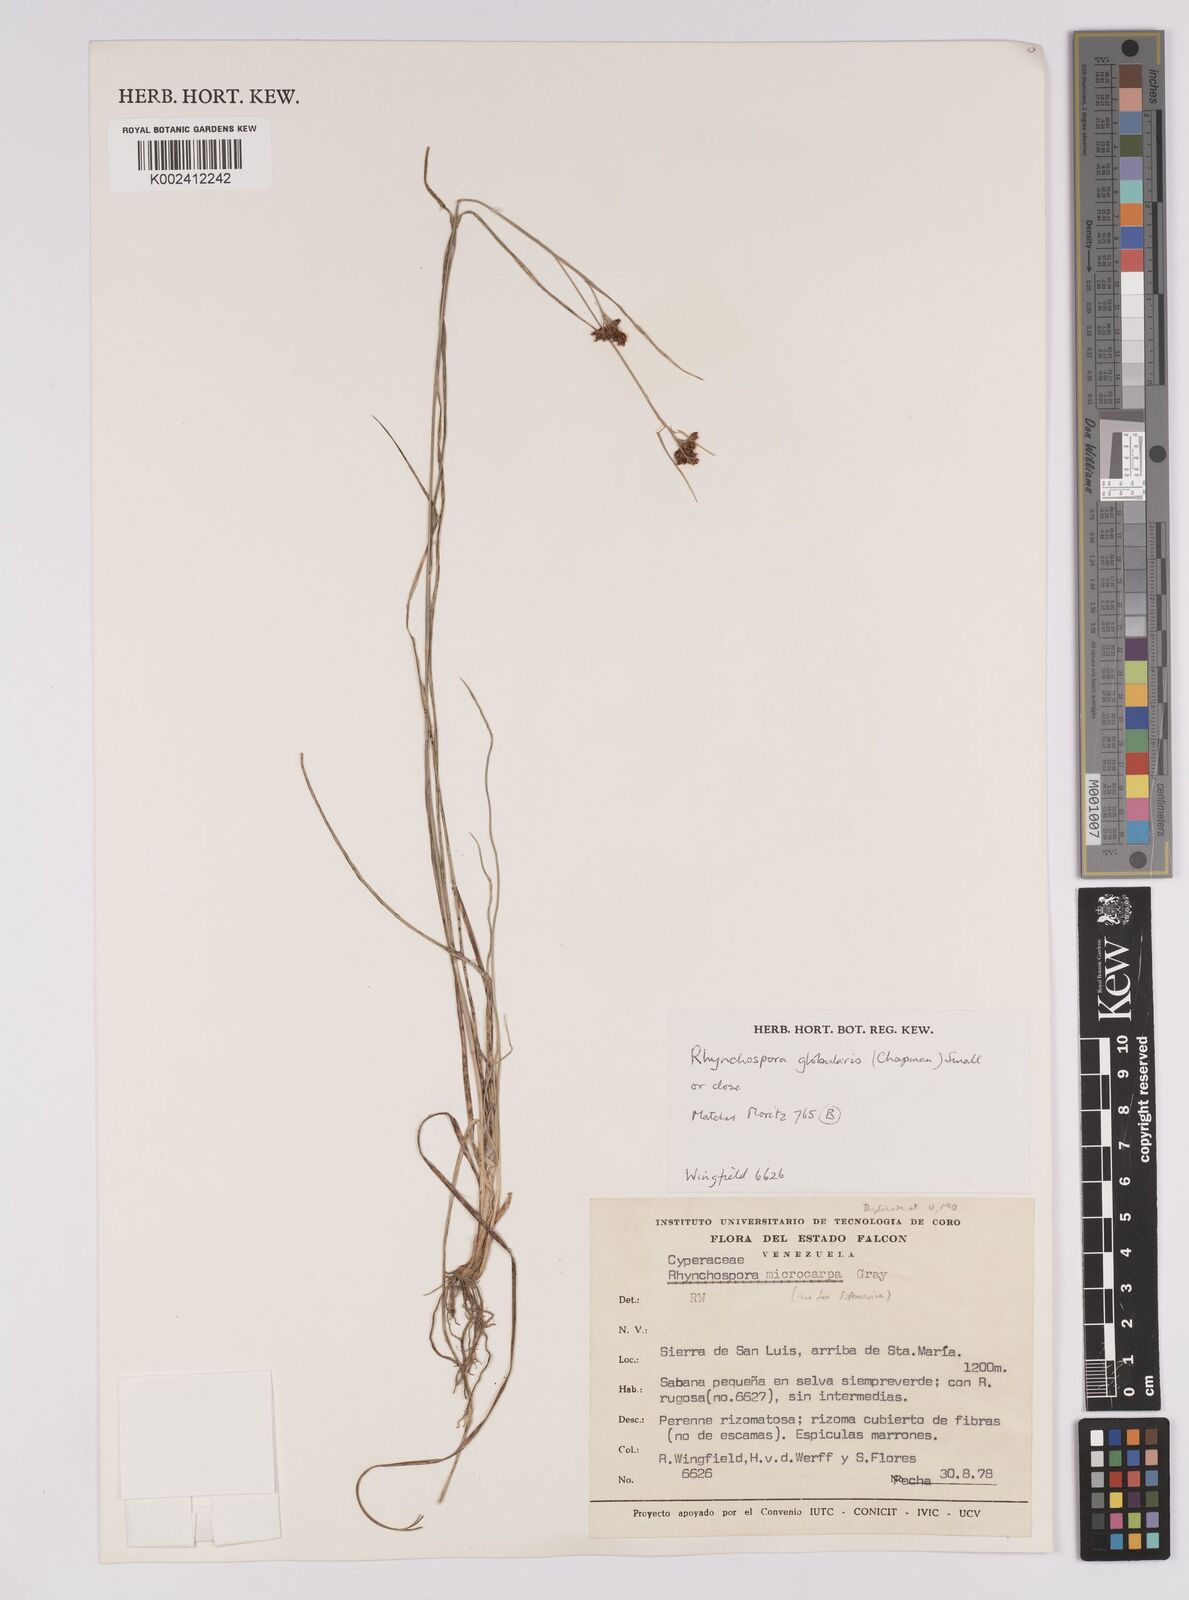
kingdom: Plantae
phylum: Tracheophyta
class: Liliopsida
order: Poales
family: Cyperaceae
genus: Rhynchospora
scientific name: Rhynchospora holoschoenoides
